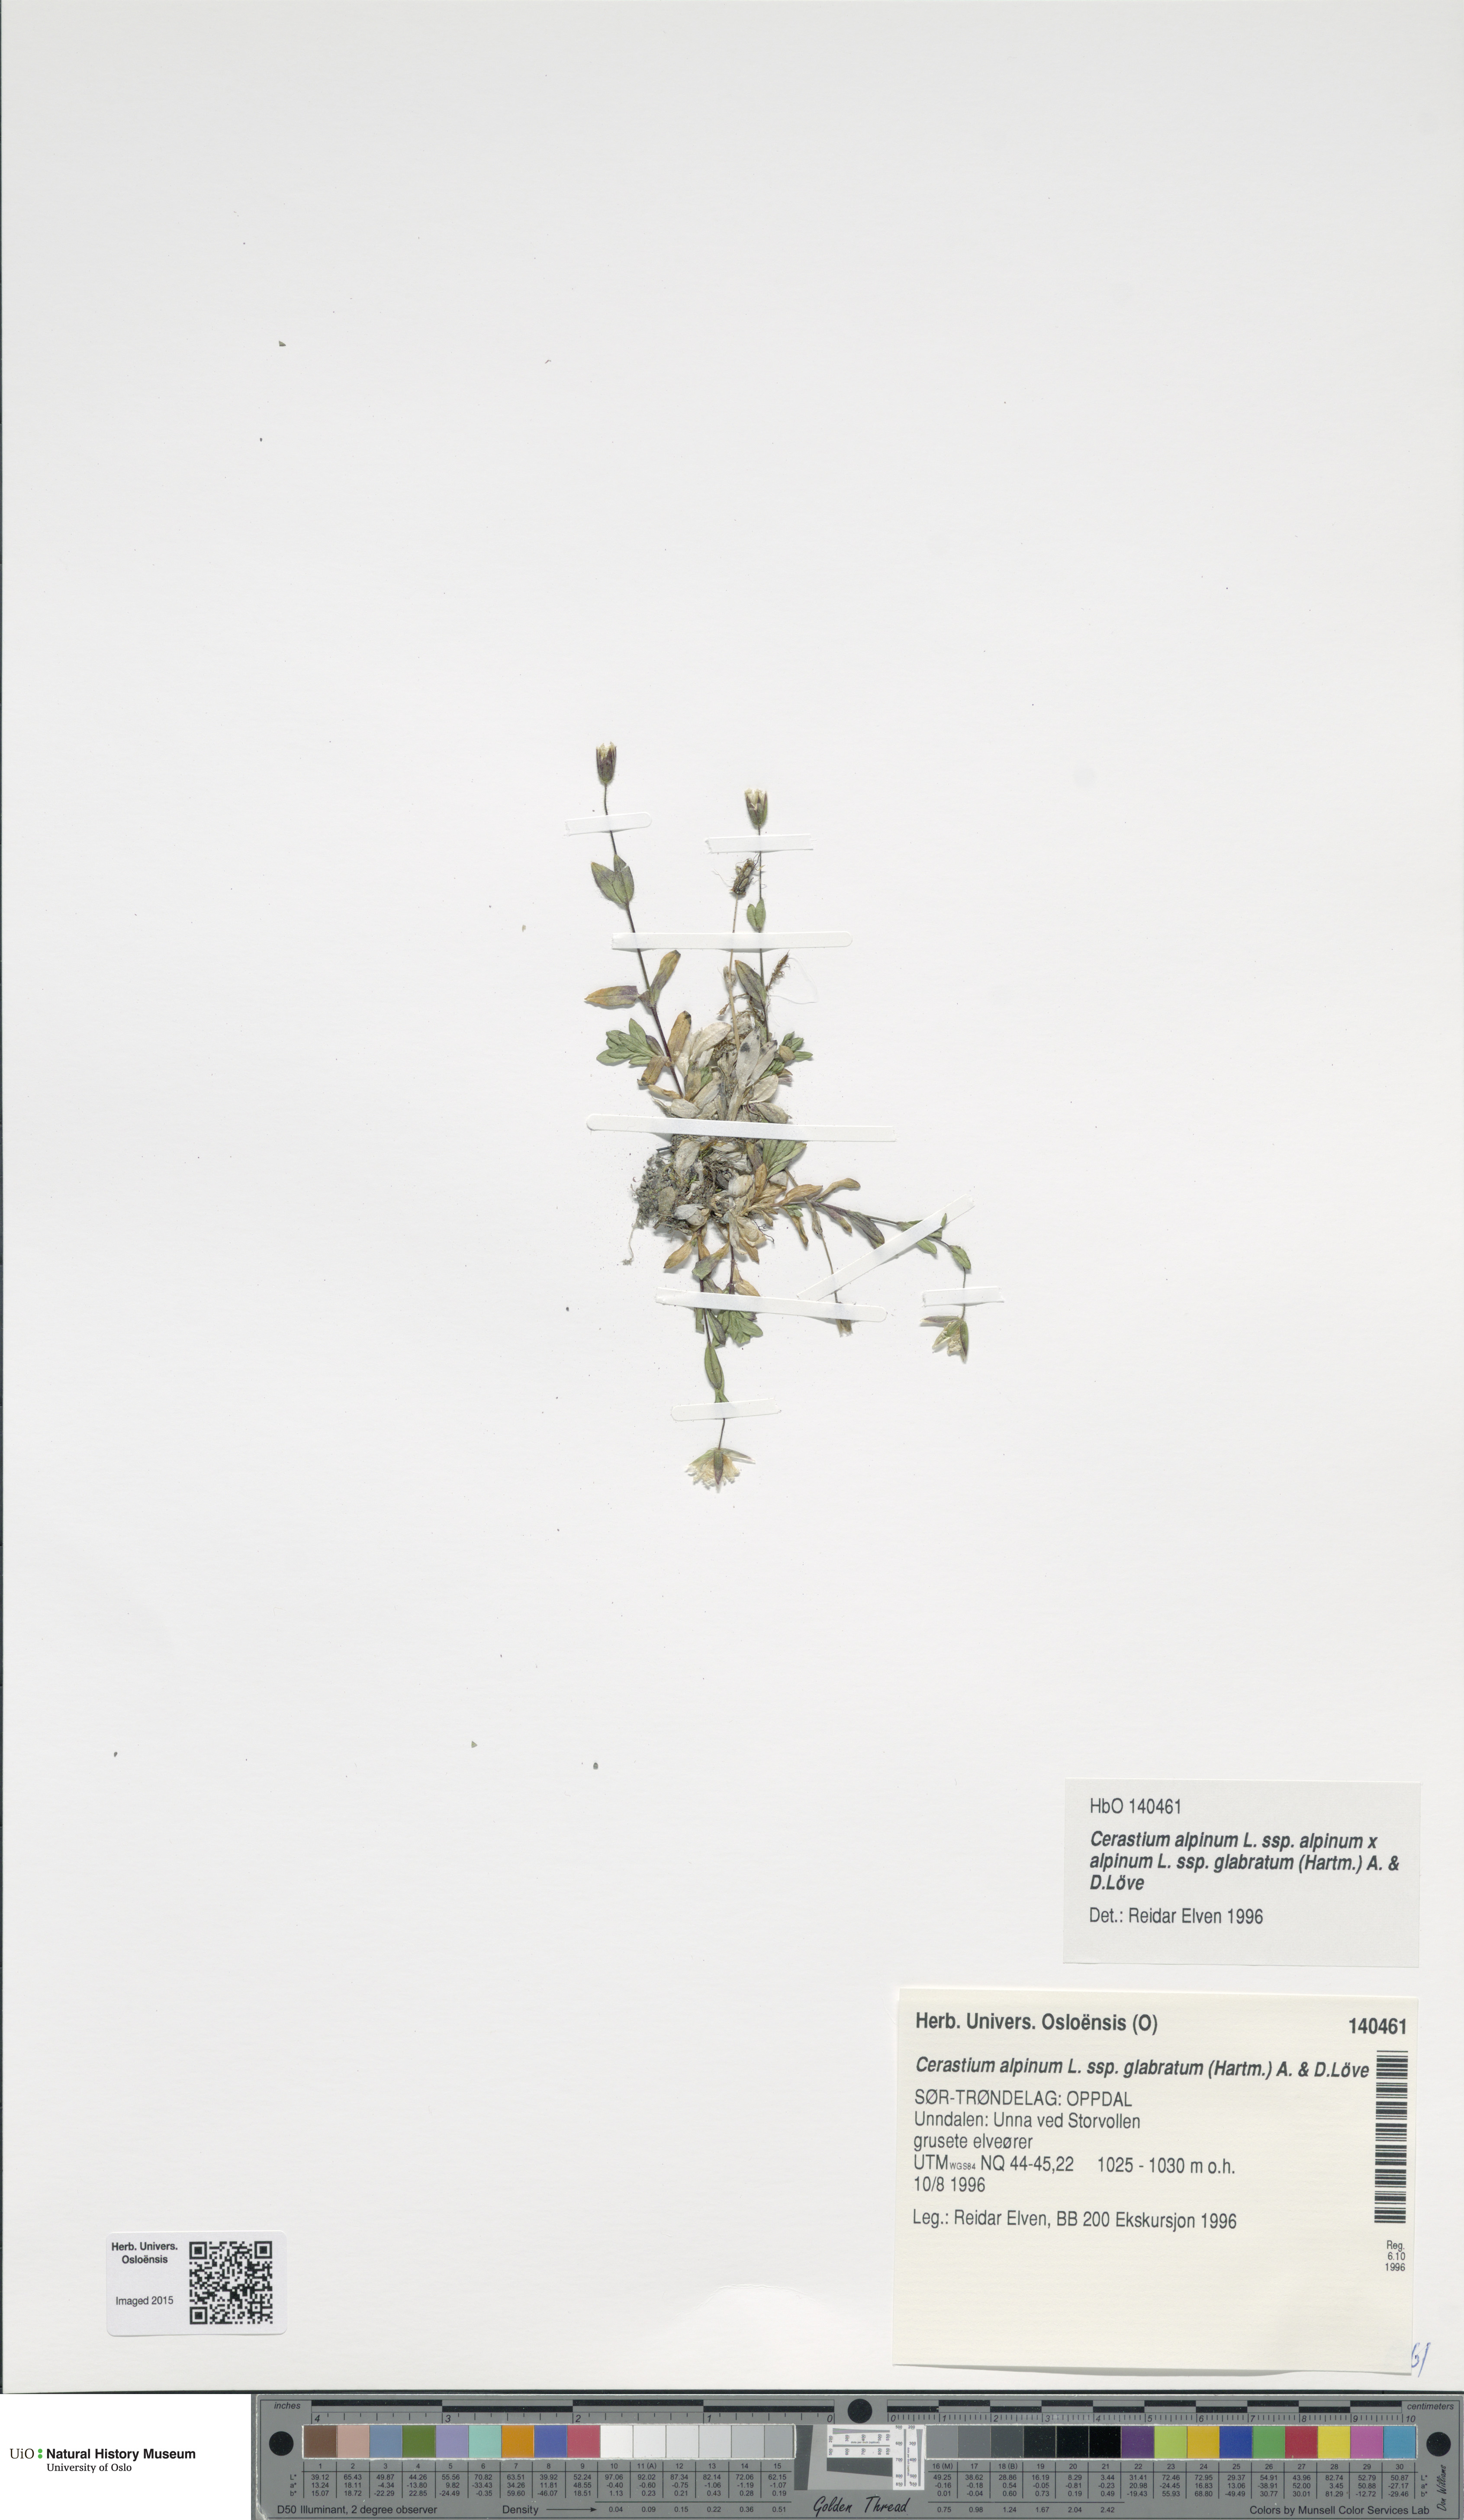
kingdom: Plantae
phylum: Tracheophyta
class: Magnoliopsida
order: Caryophyllales
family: Caryophyllaceae
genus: Cerastium
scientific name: Cerastium alpinum
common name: Alpine mouse-ear
